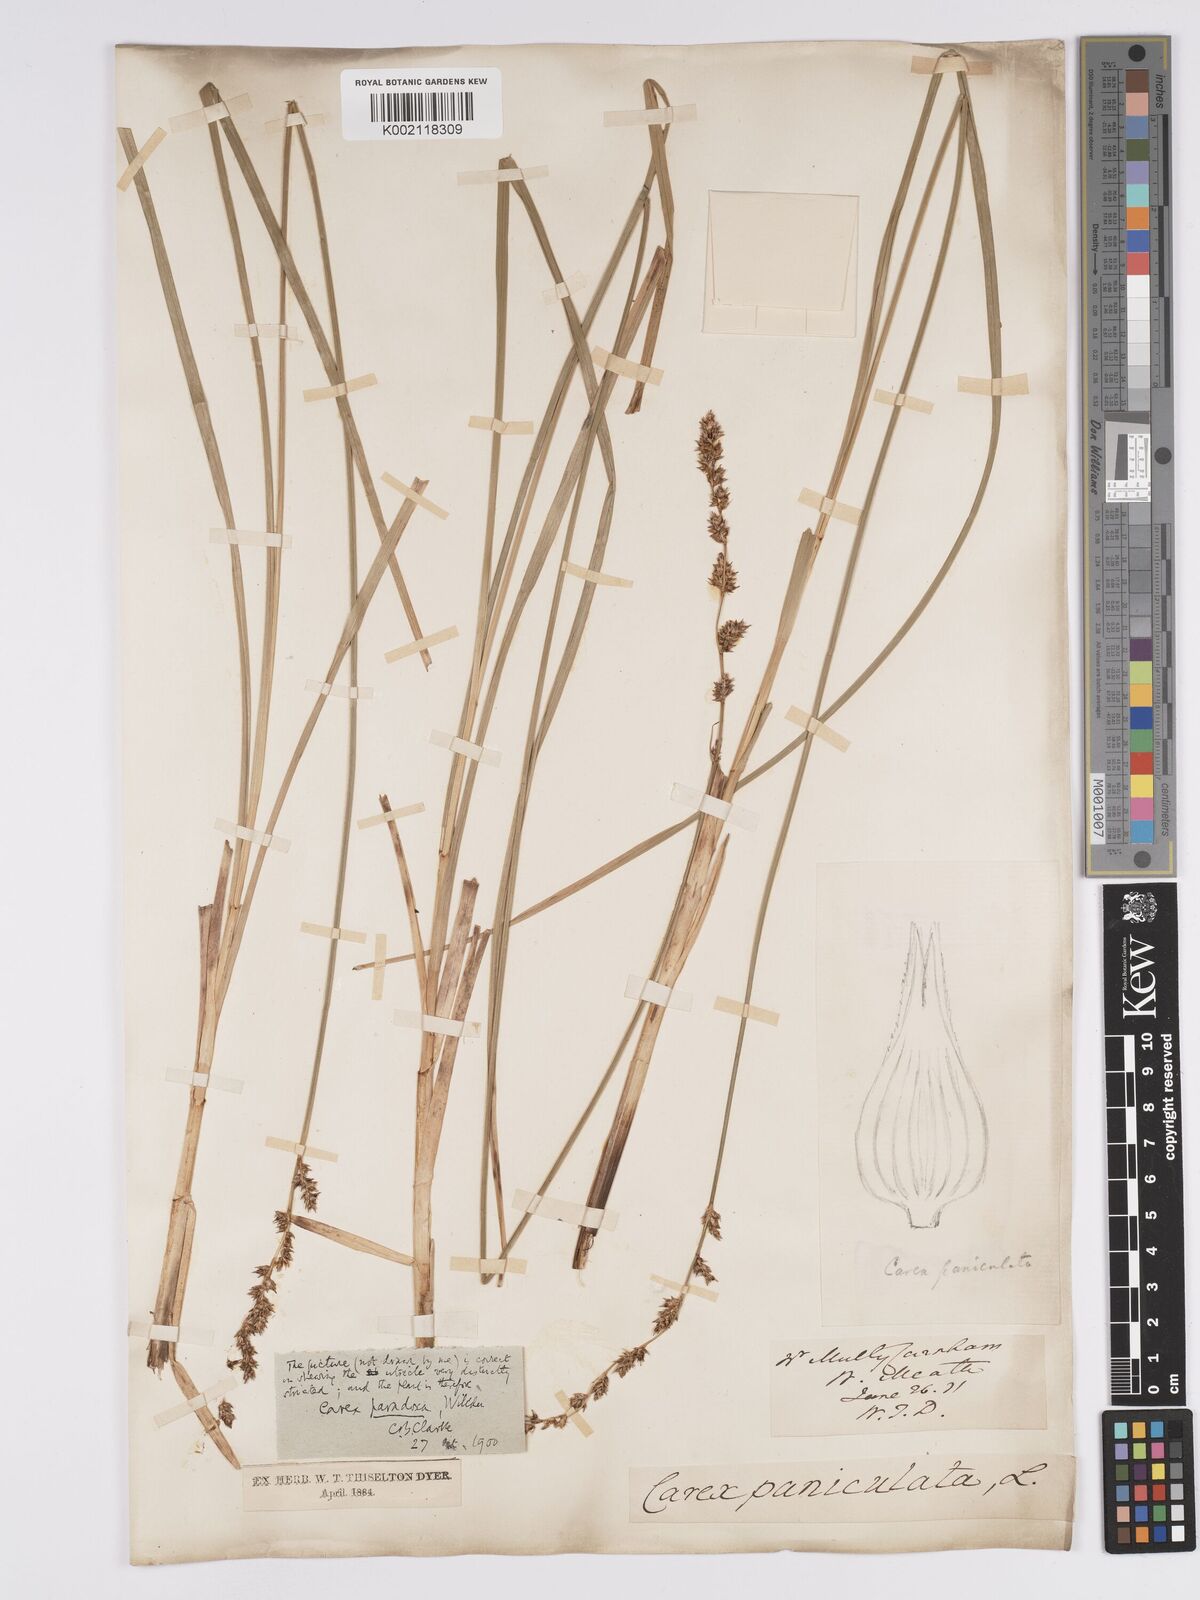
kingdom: Plantae
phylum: Tracheophyta
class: Liliopsida
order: Poales
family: Cyperaceae
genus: Carex
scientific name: Carex paniculata
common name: Greater tussock-sedge
